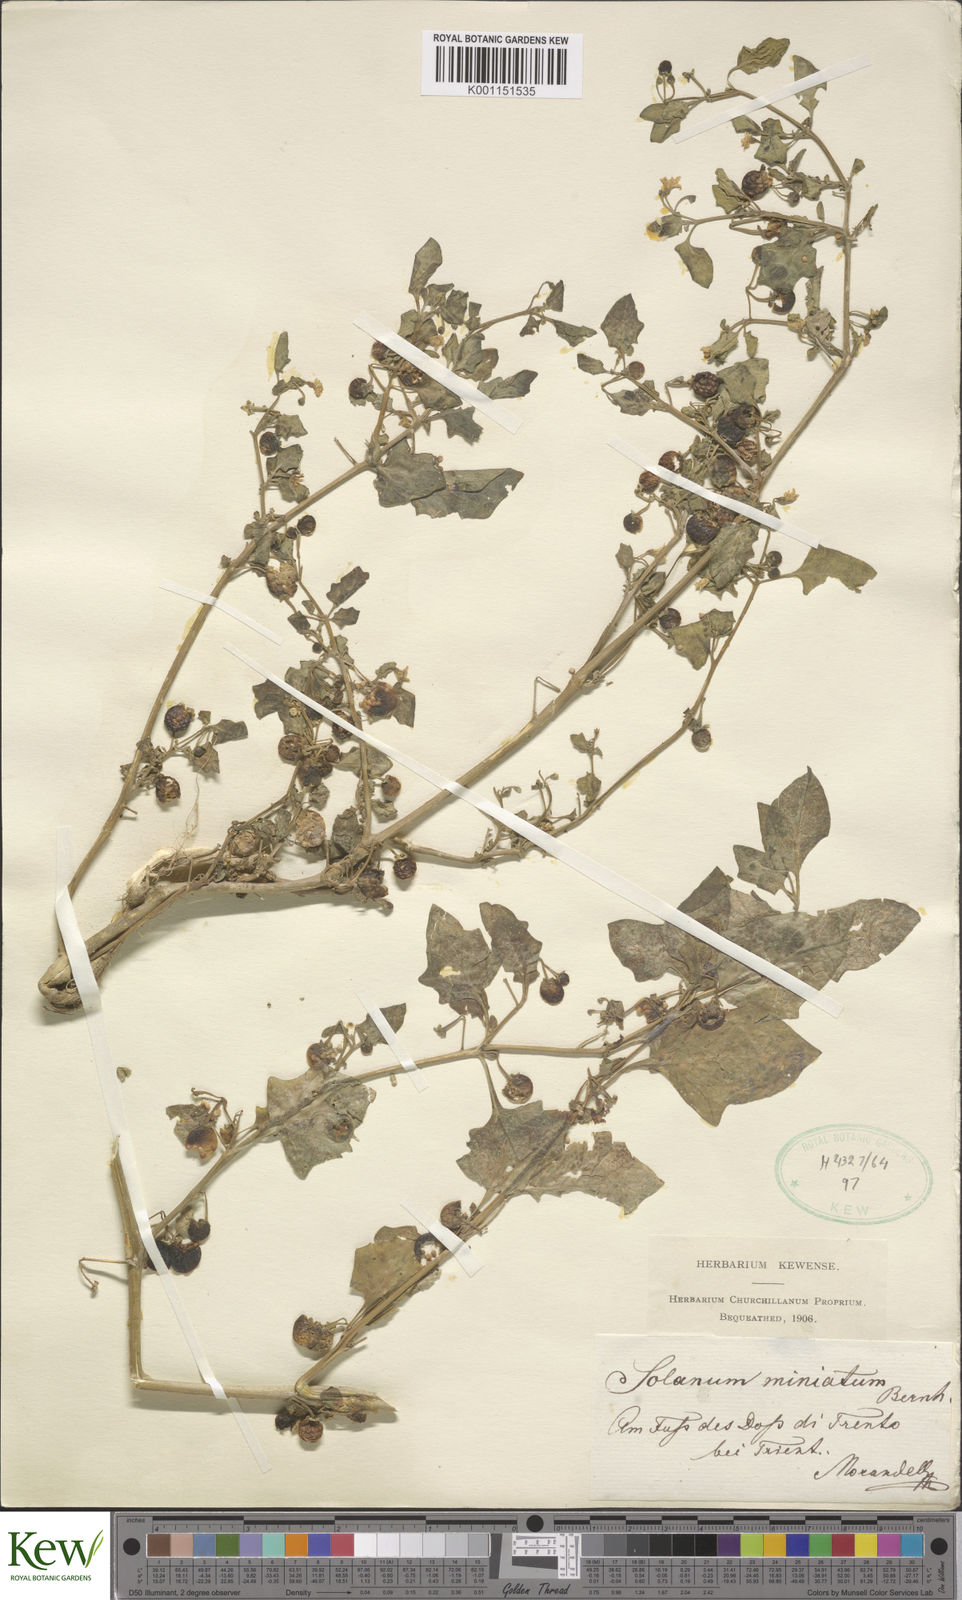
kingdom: Plantae
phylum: Tracheophyta
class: Magnoliopsida
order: Solanales
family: Solanaceae
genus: Solanum
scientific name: Solanum alatum
